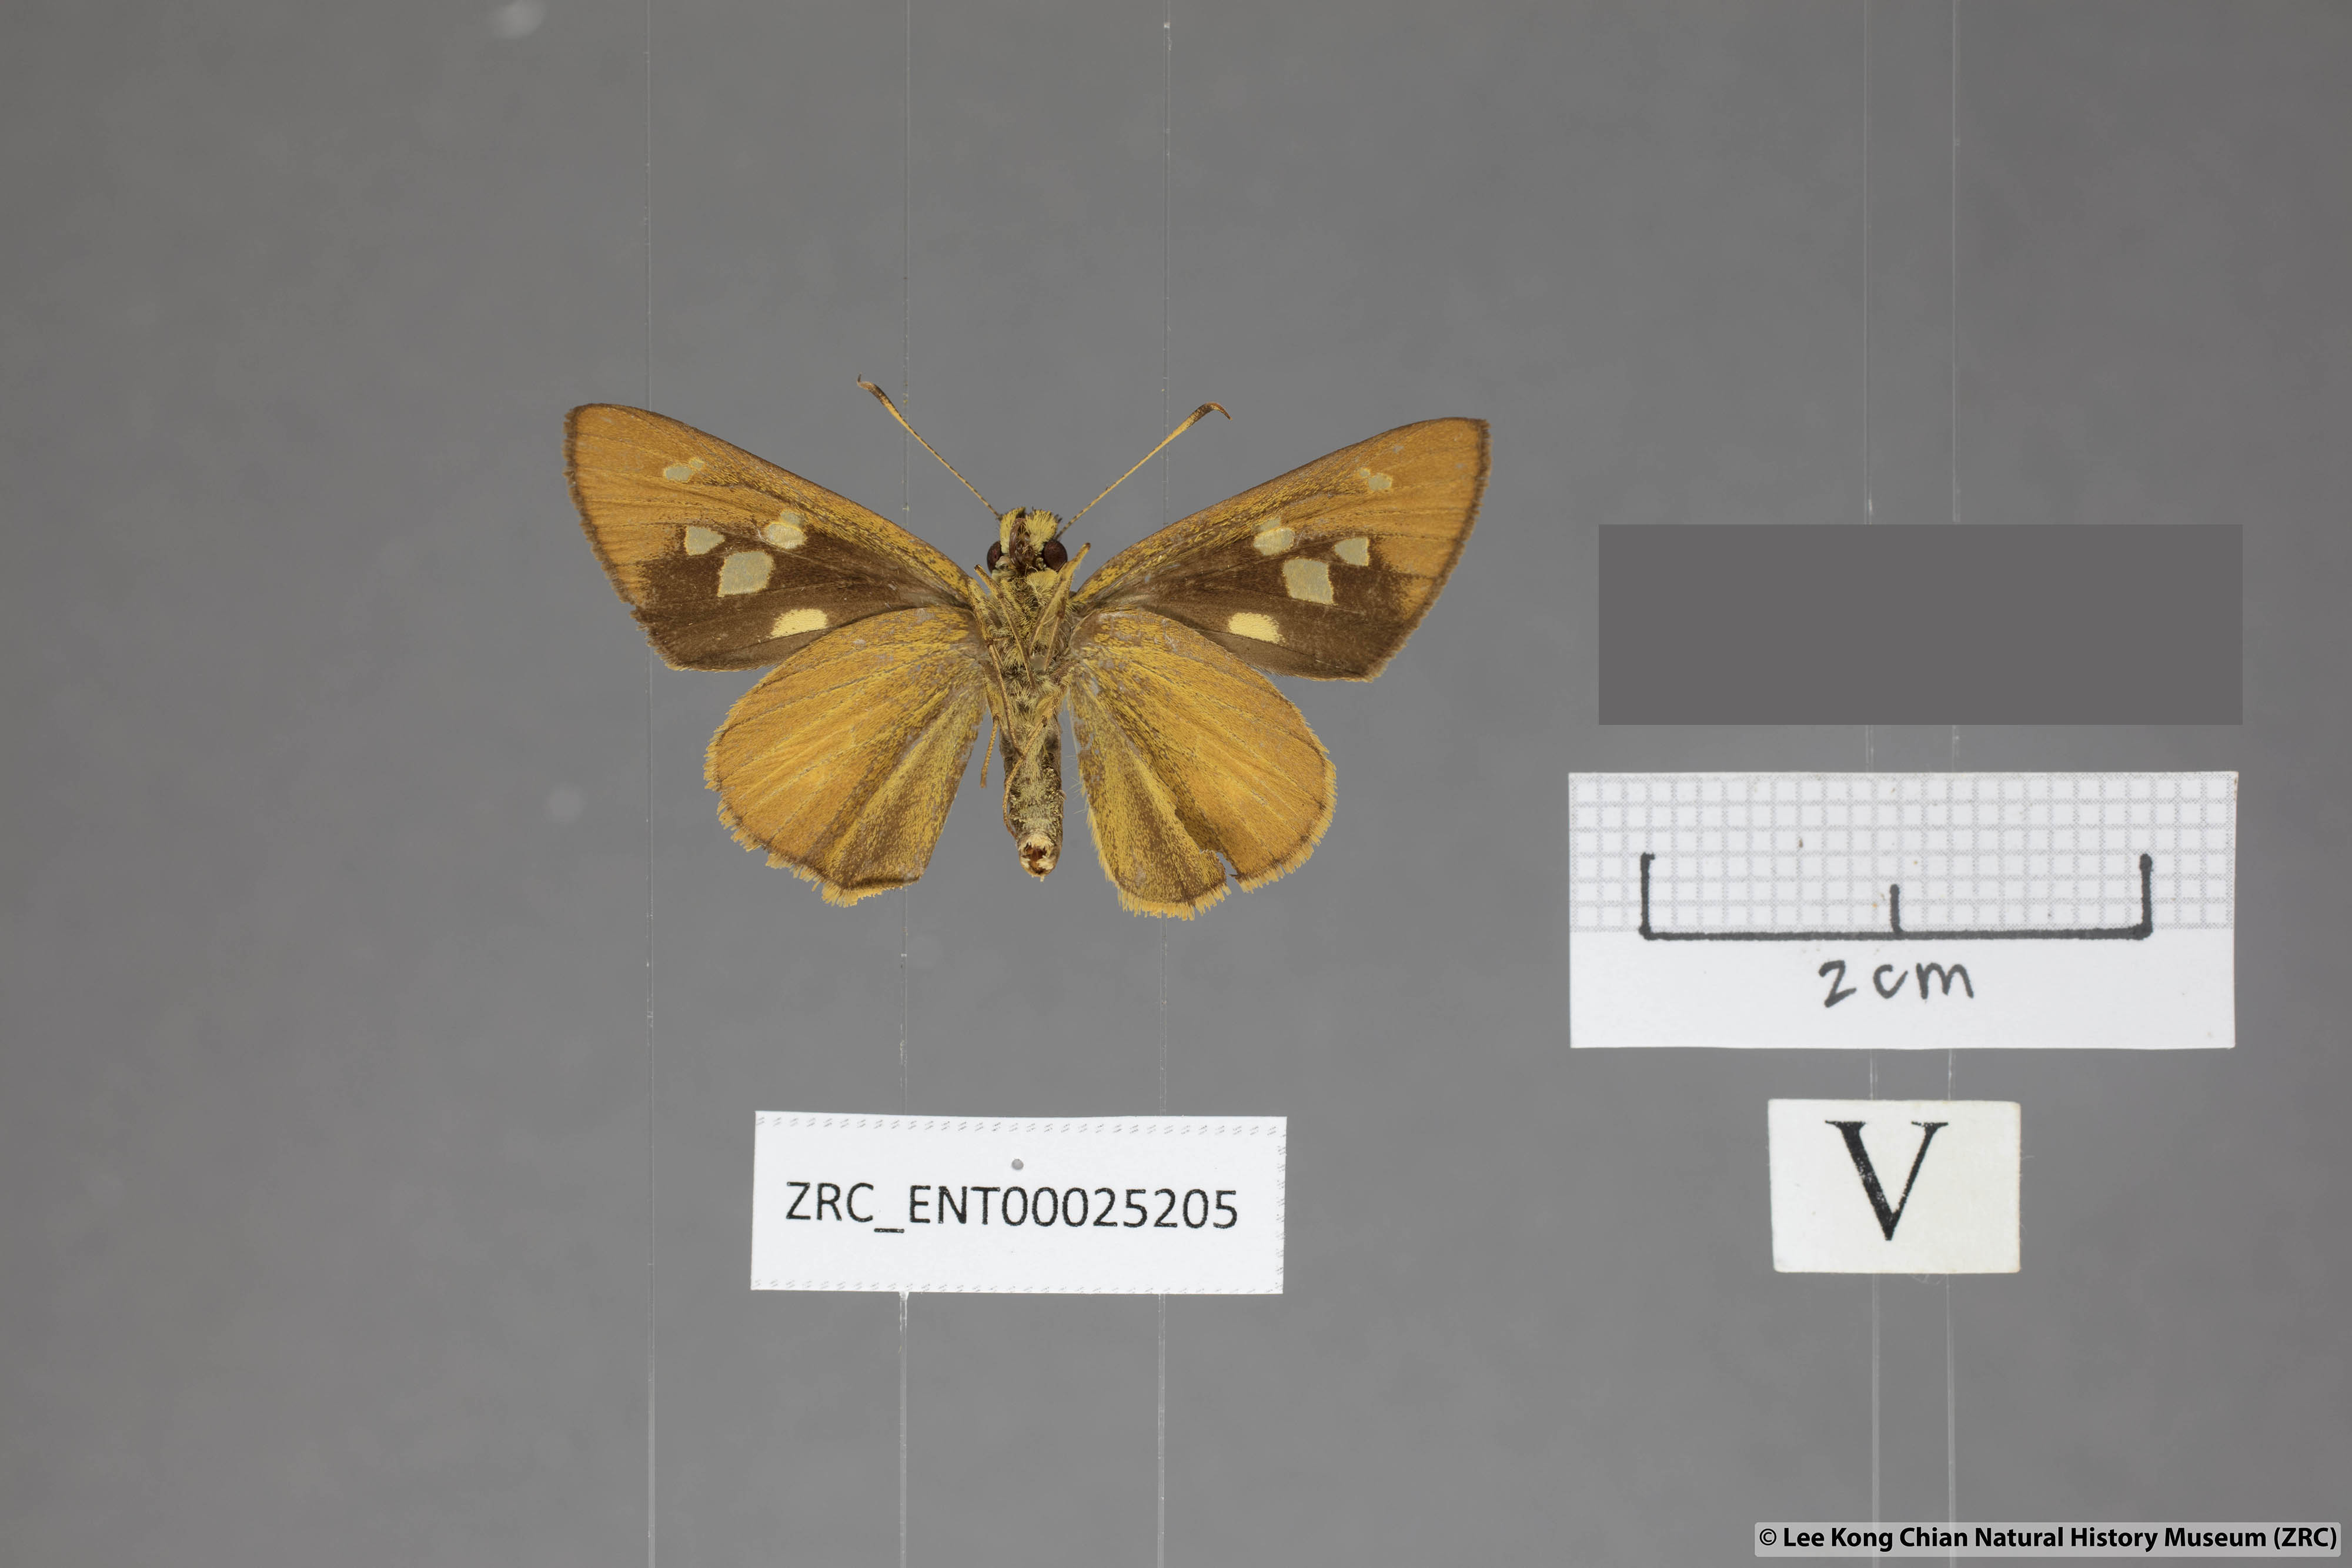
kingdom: Animalia
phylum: Arthropoda
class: Insecta
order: Lepidoptera
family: Hesperiidae
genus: Xanthoneura
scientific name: Xanthoneura corissa
